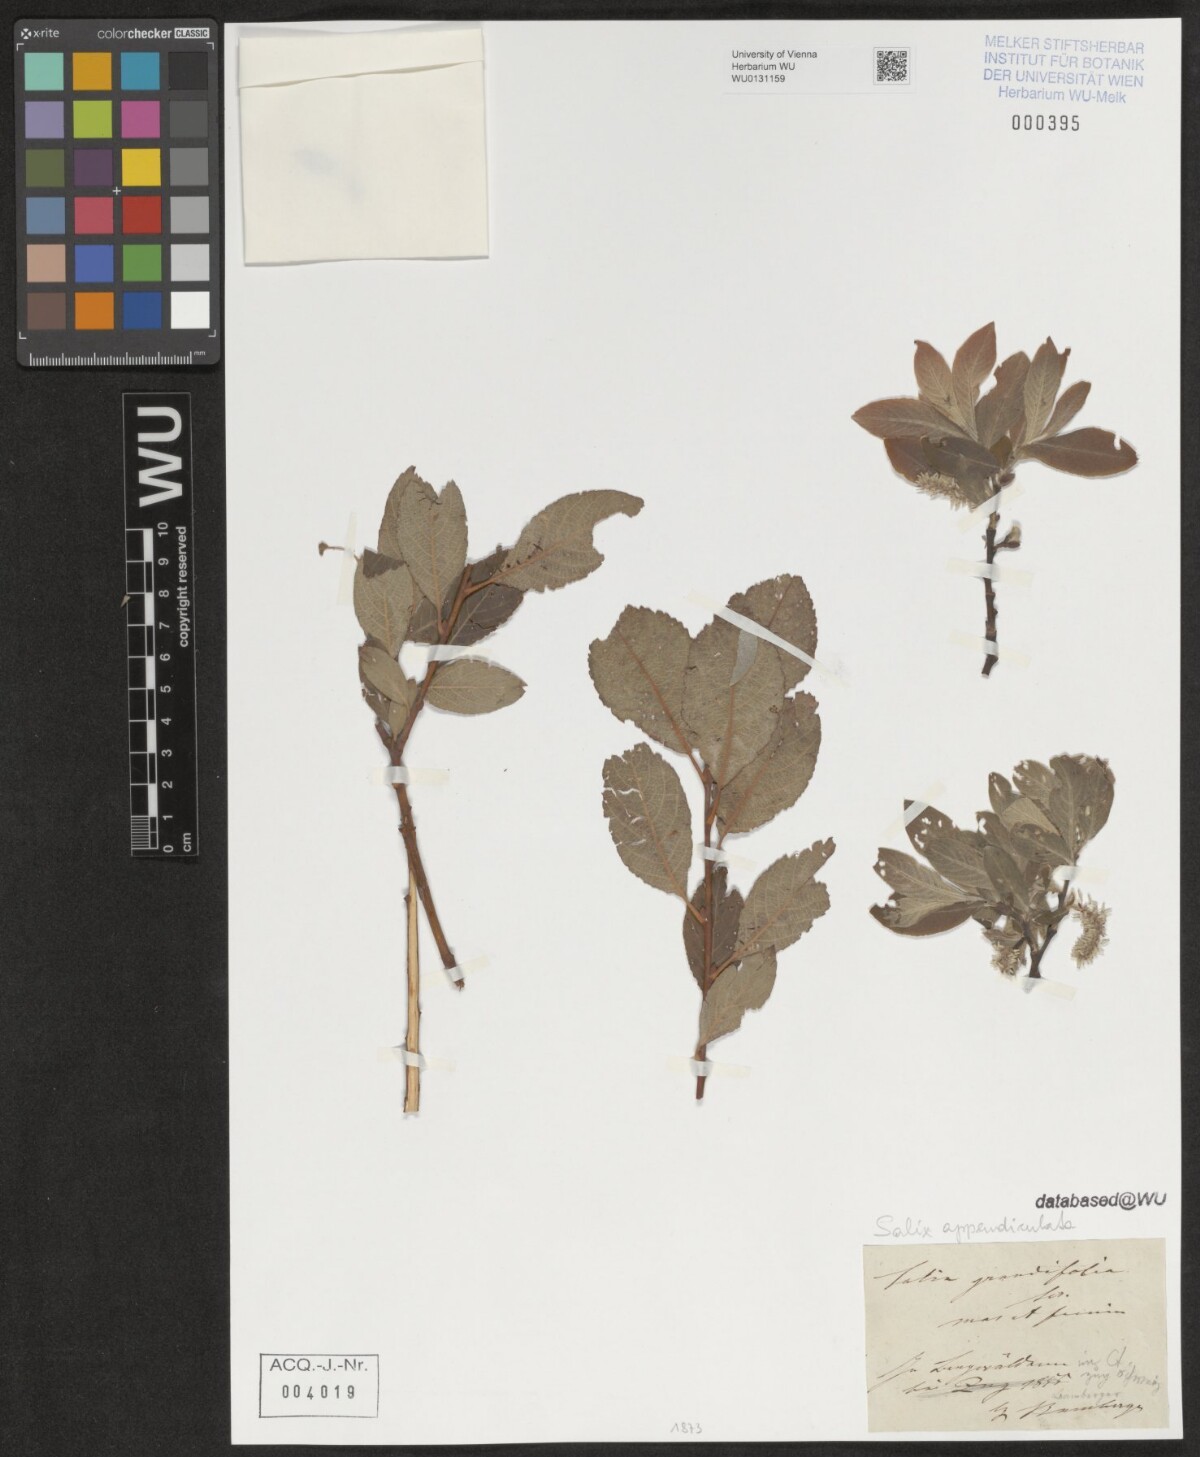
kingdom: Plantae
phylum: Tracheophyta
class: Magnoliopsida
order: Malpighiales
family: Salicaceae
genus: Salix
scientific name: Salix appendiculata
